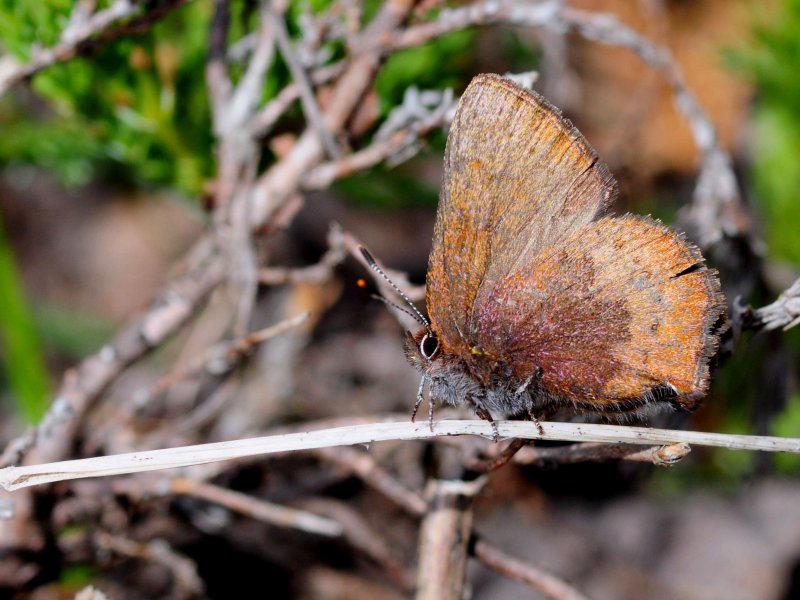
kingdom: Animalia
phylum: Arthropoda
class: Insecta
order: Lepidoptera
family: Lycaenidae
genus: Incisalia
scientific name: Incisalia irioides
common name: Brown Elfin
